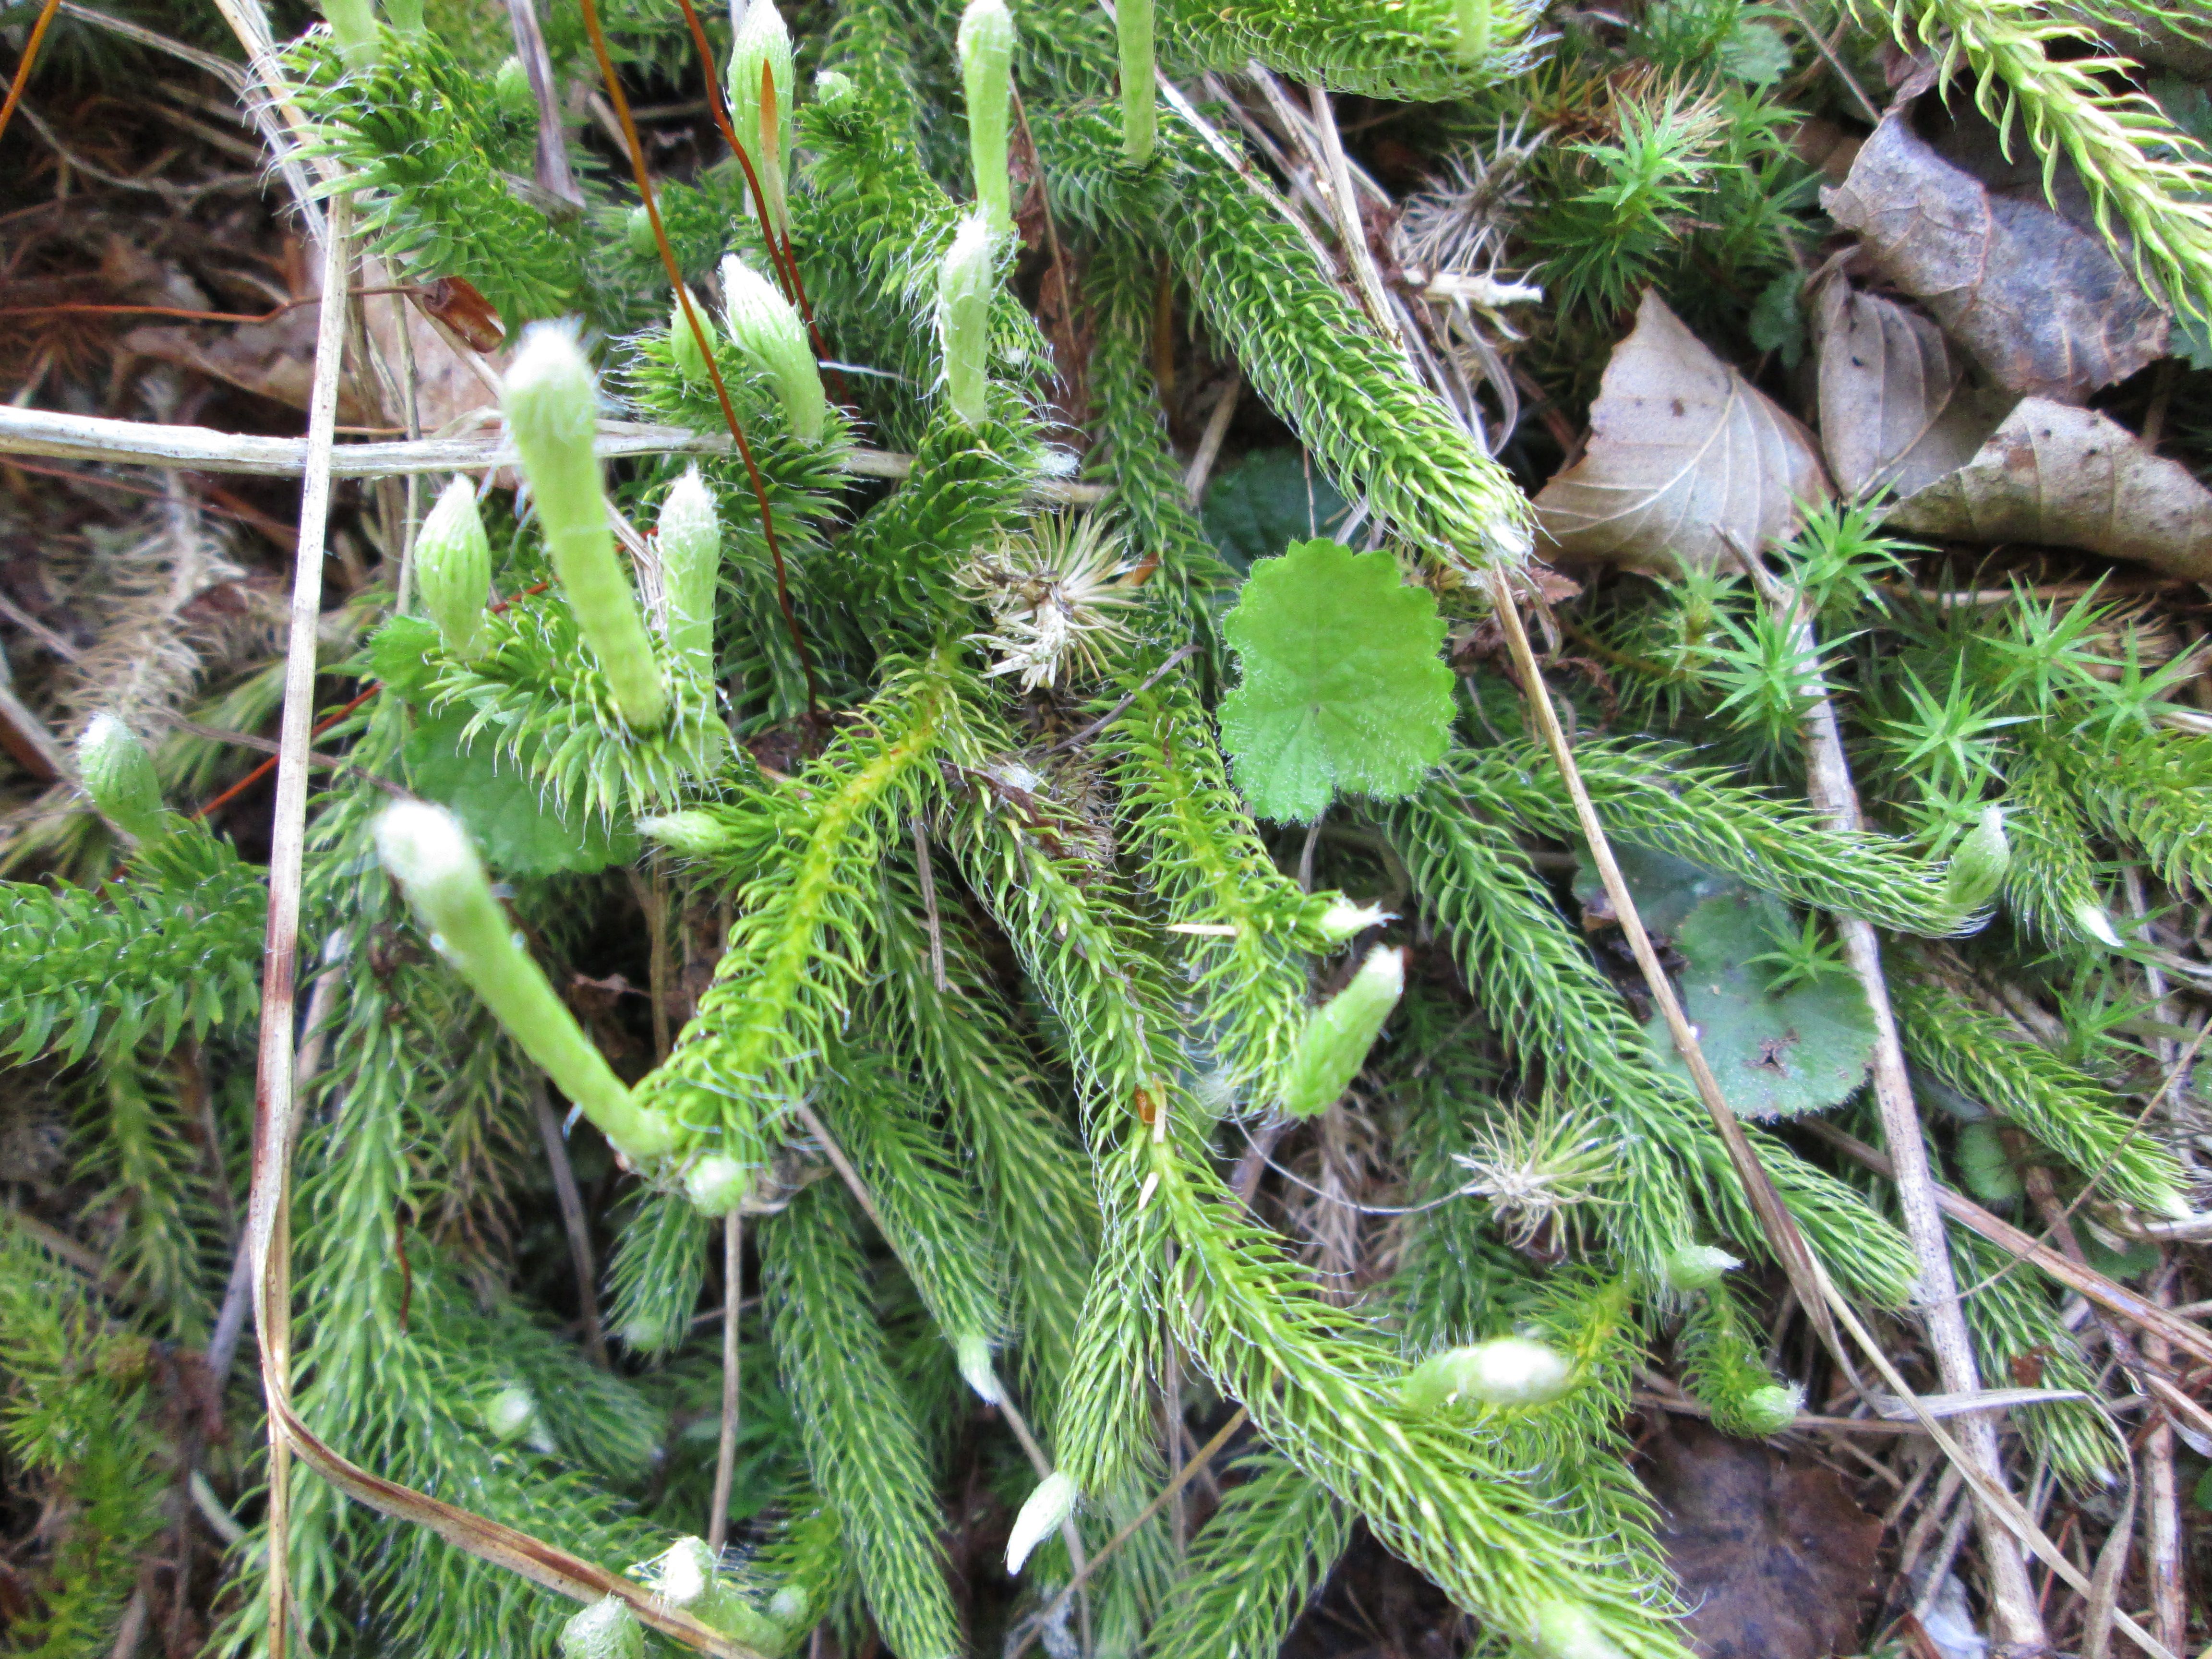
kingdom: Plantae
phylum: Tracheophyta
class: Lycopodiopsida
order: Lycopodiales
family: Lycopodiaceae
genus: Lycopodium
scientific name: Lycopodium clavatum
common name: Stag's-horn clubmoss
